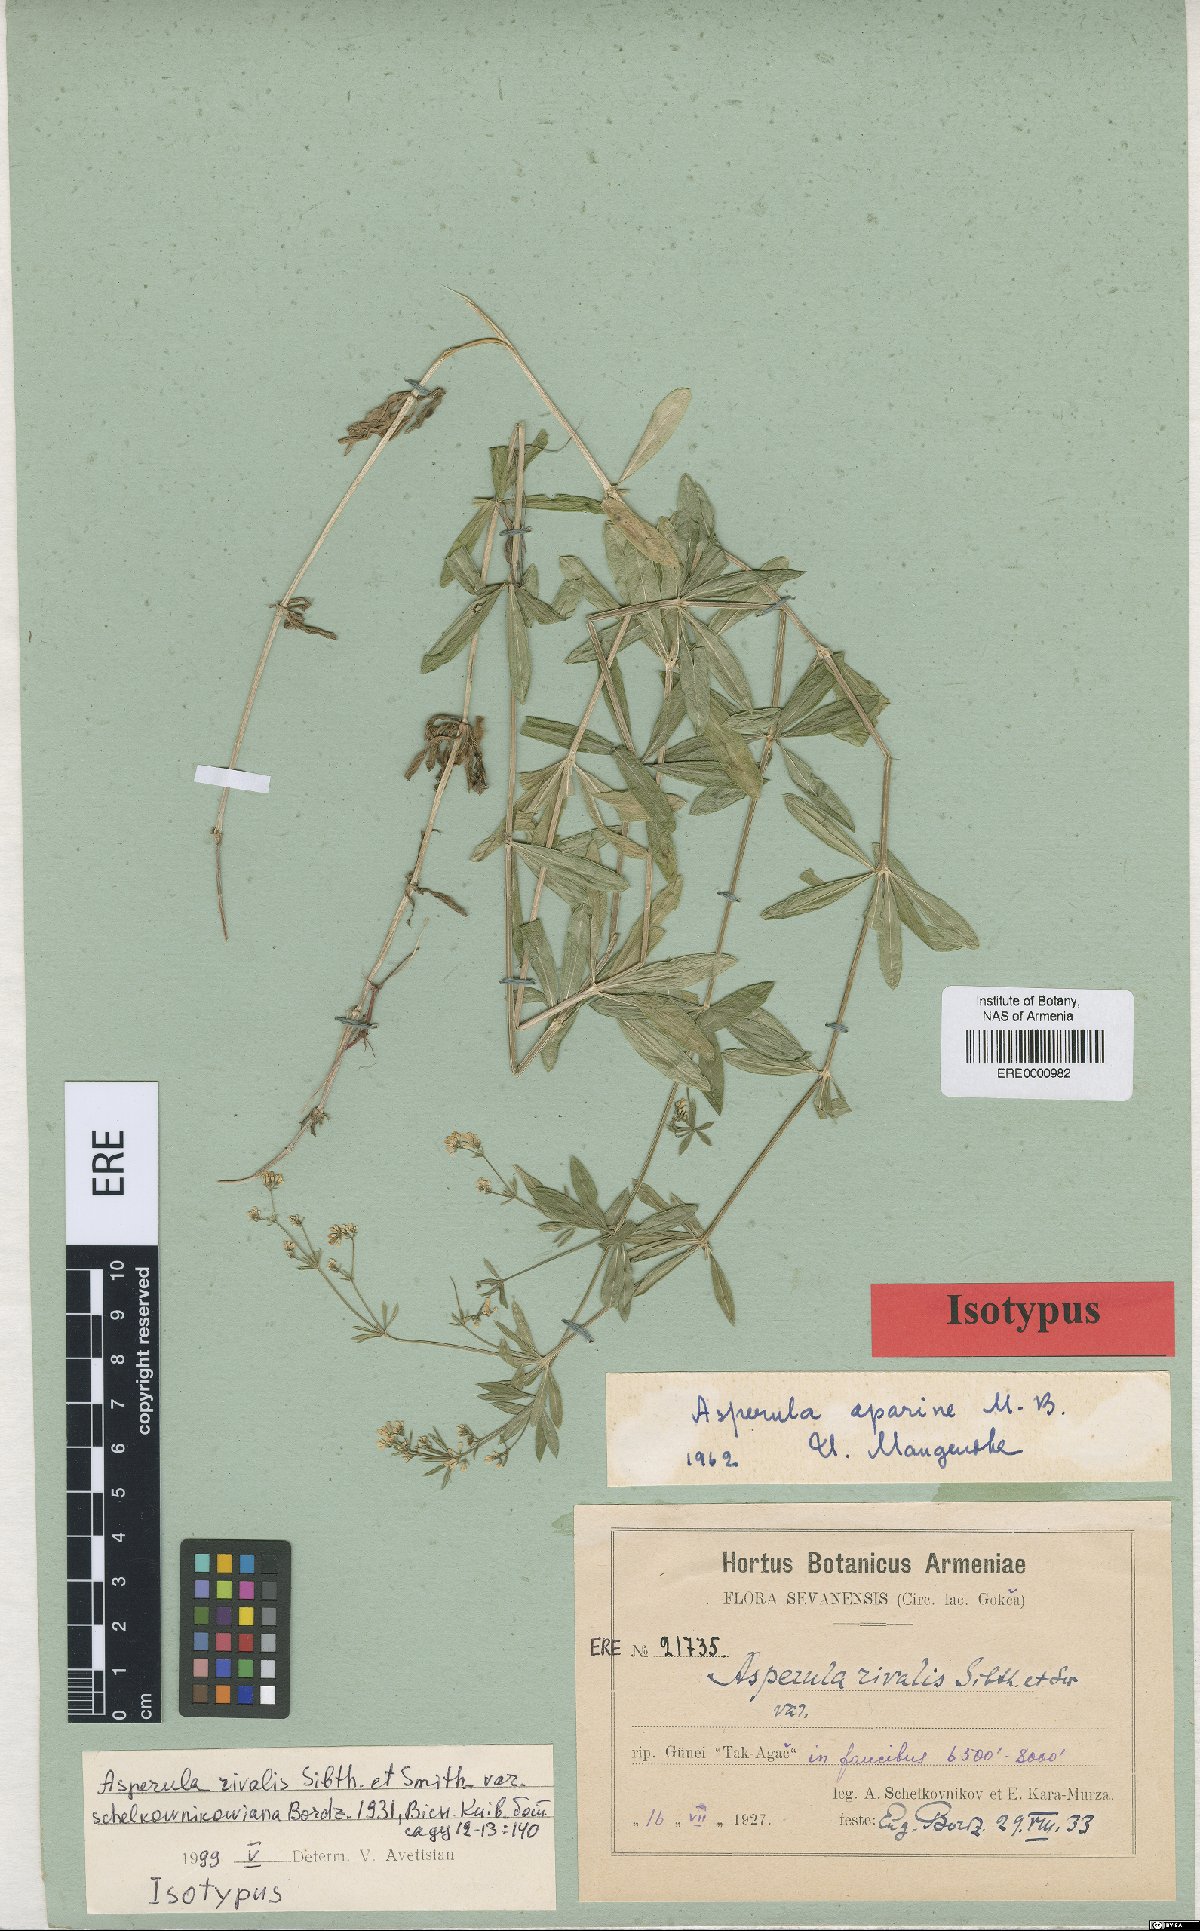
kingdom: Plantae
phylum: Tracheophyta
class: Magnoliopsida
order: Gentianales
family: Rubiaceae
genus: Galium
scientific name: Galium rivale
